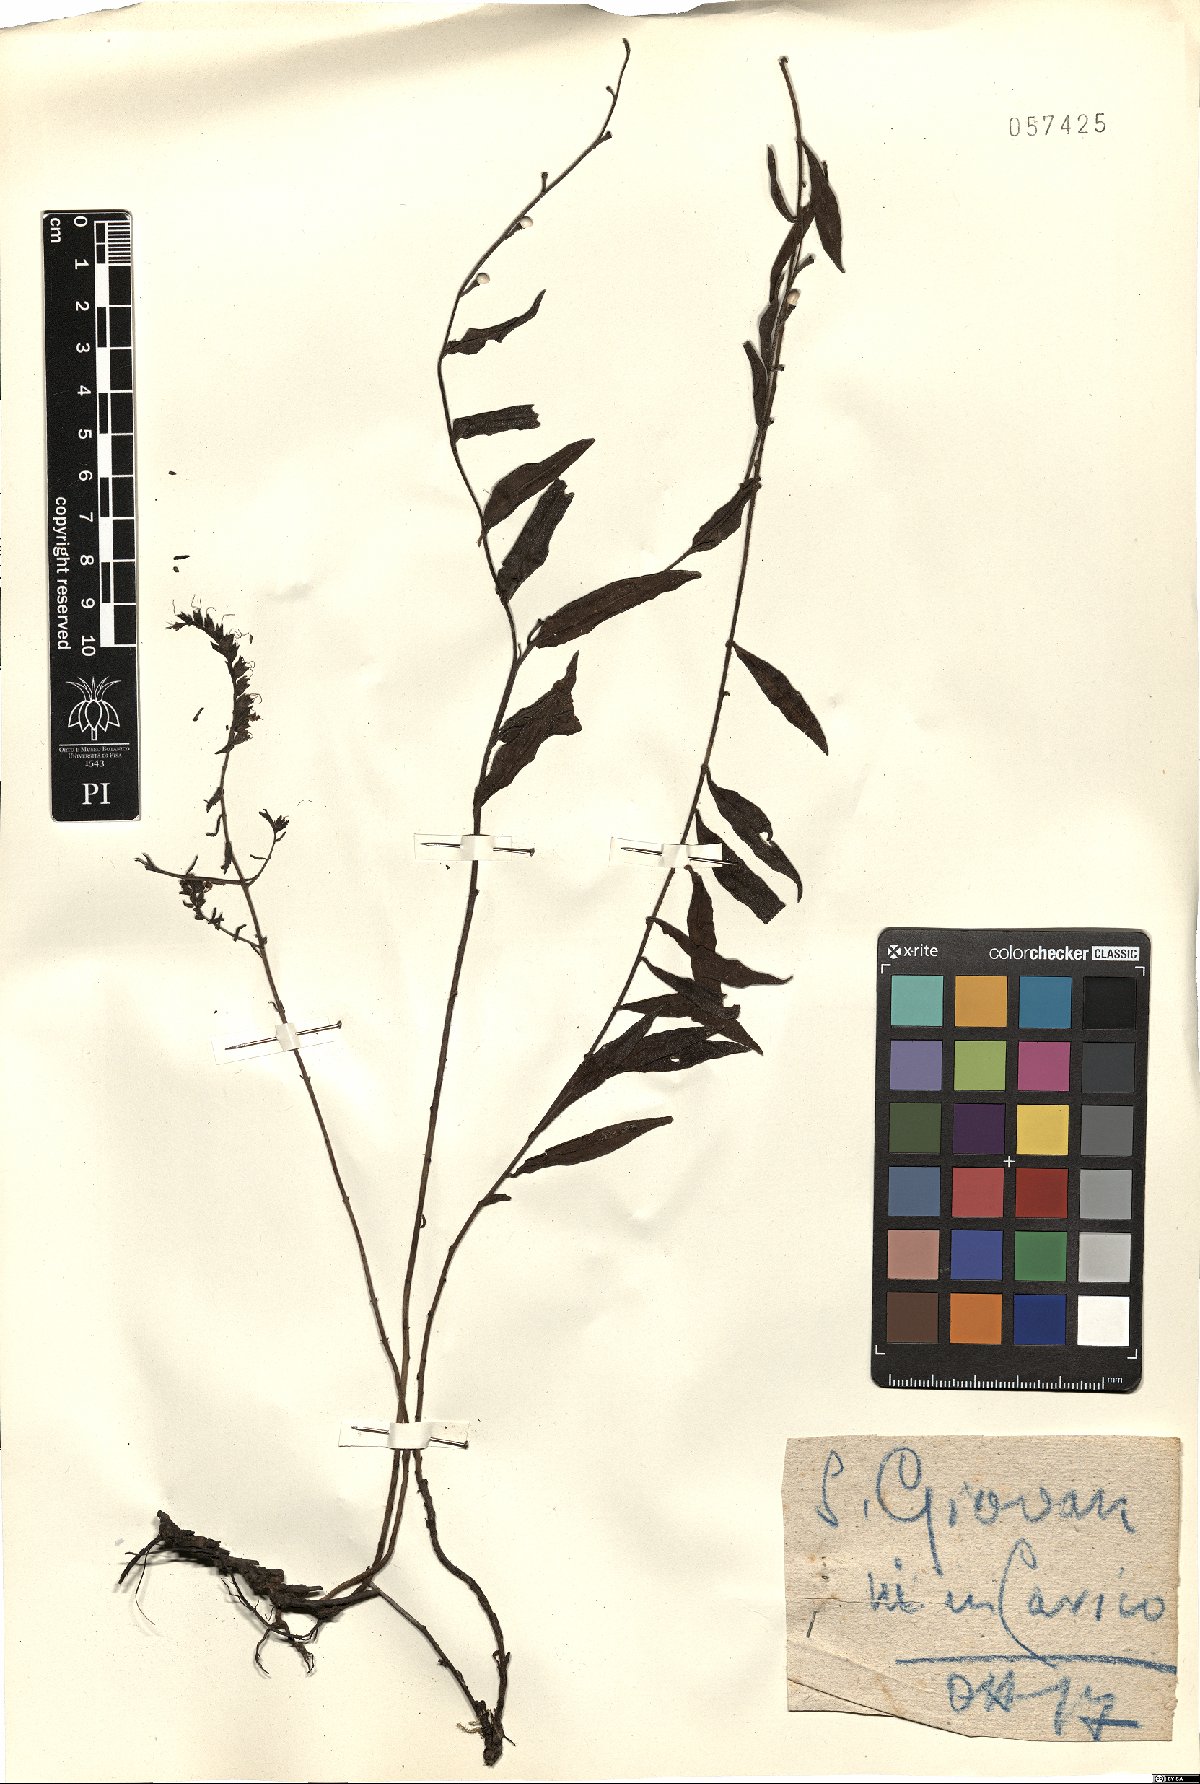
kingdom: Plantae
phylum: Tracheophyta
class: Magnoliopsida
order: Boraginales
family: Boraginaceae
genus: Lithospermum
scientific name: Lithospermum
